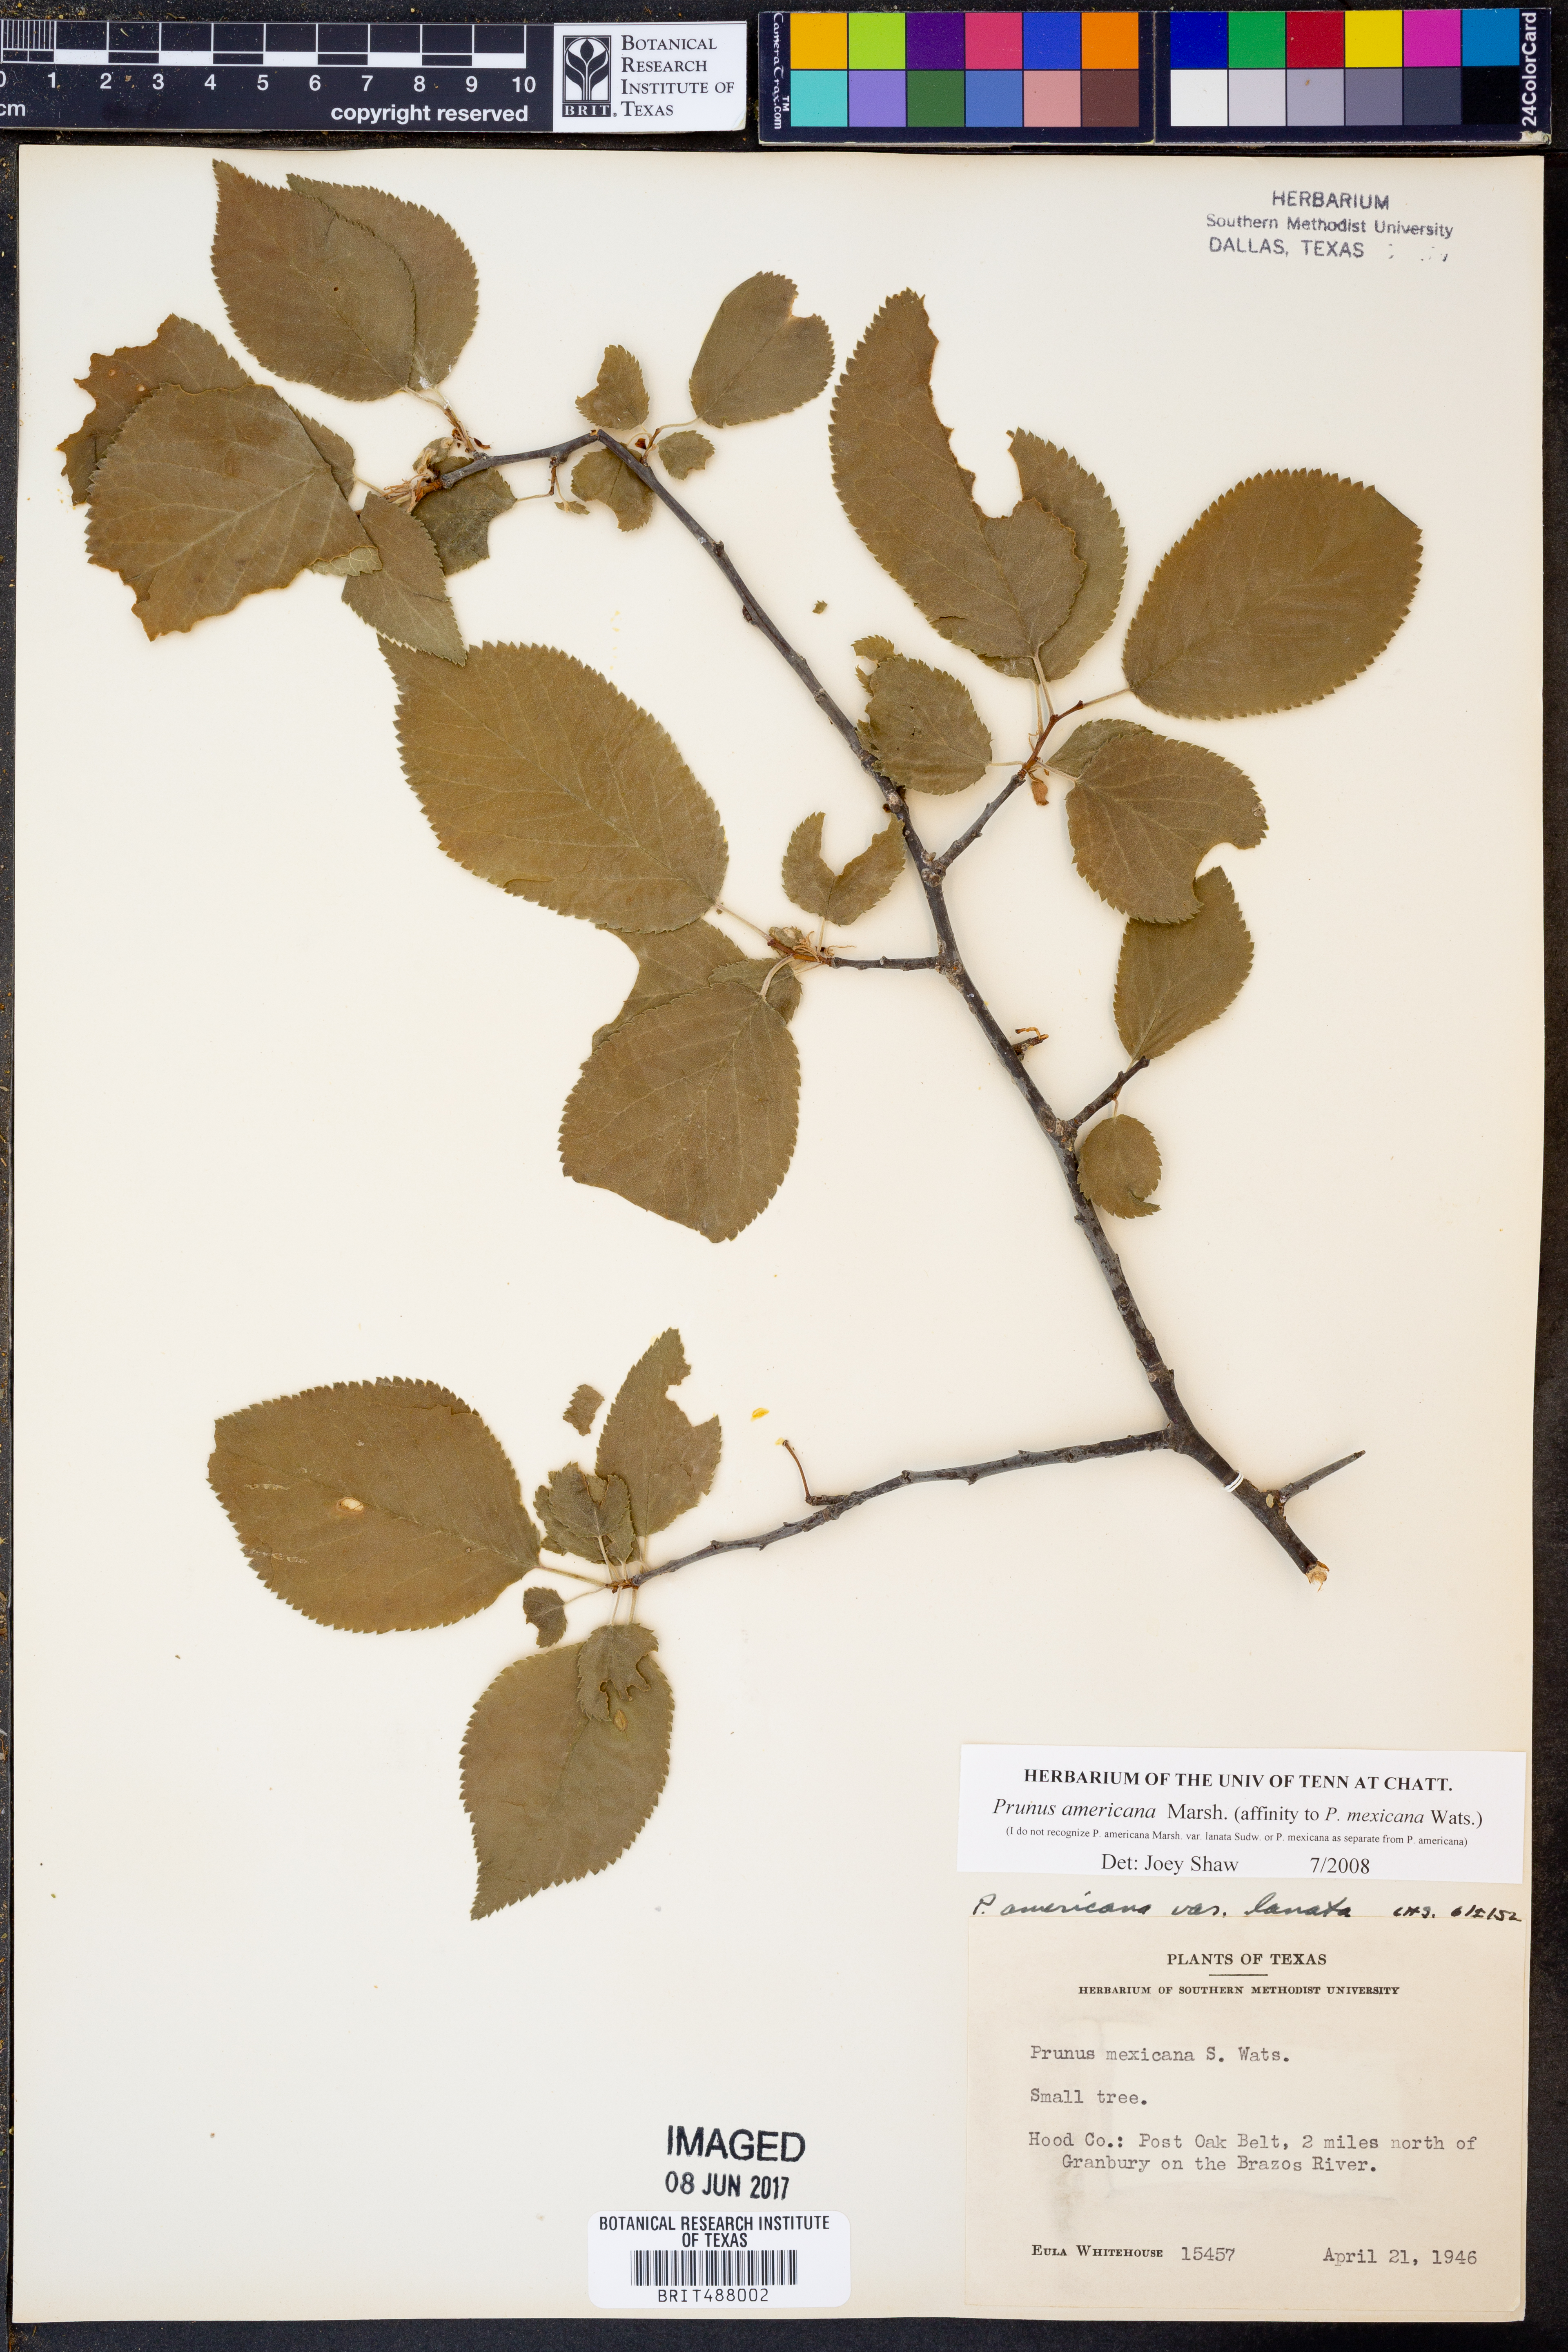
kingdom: Plantae
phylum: Tracheophyta
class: Magnoliopsida
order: Rosales
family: Rosaceae
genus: Prunus
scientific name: Prunus americana
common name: American plum
